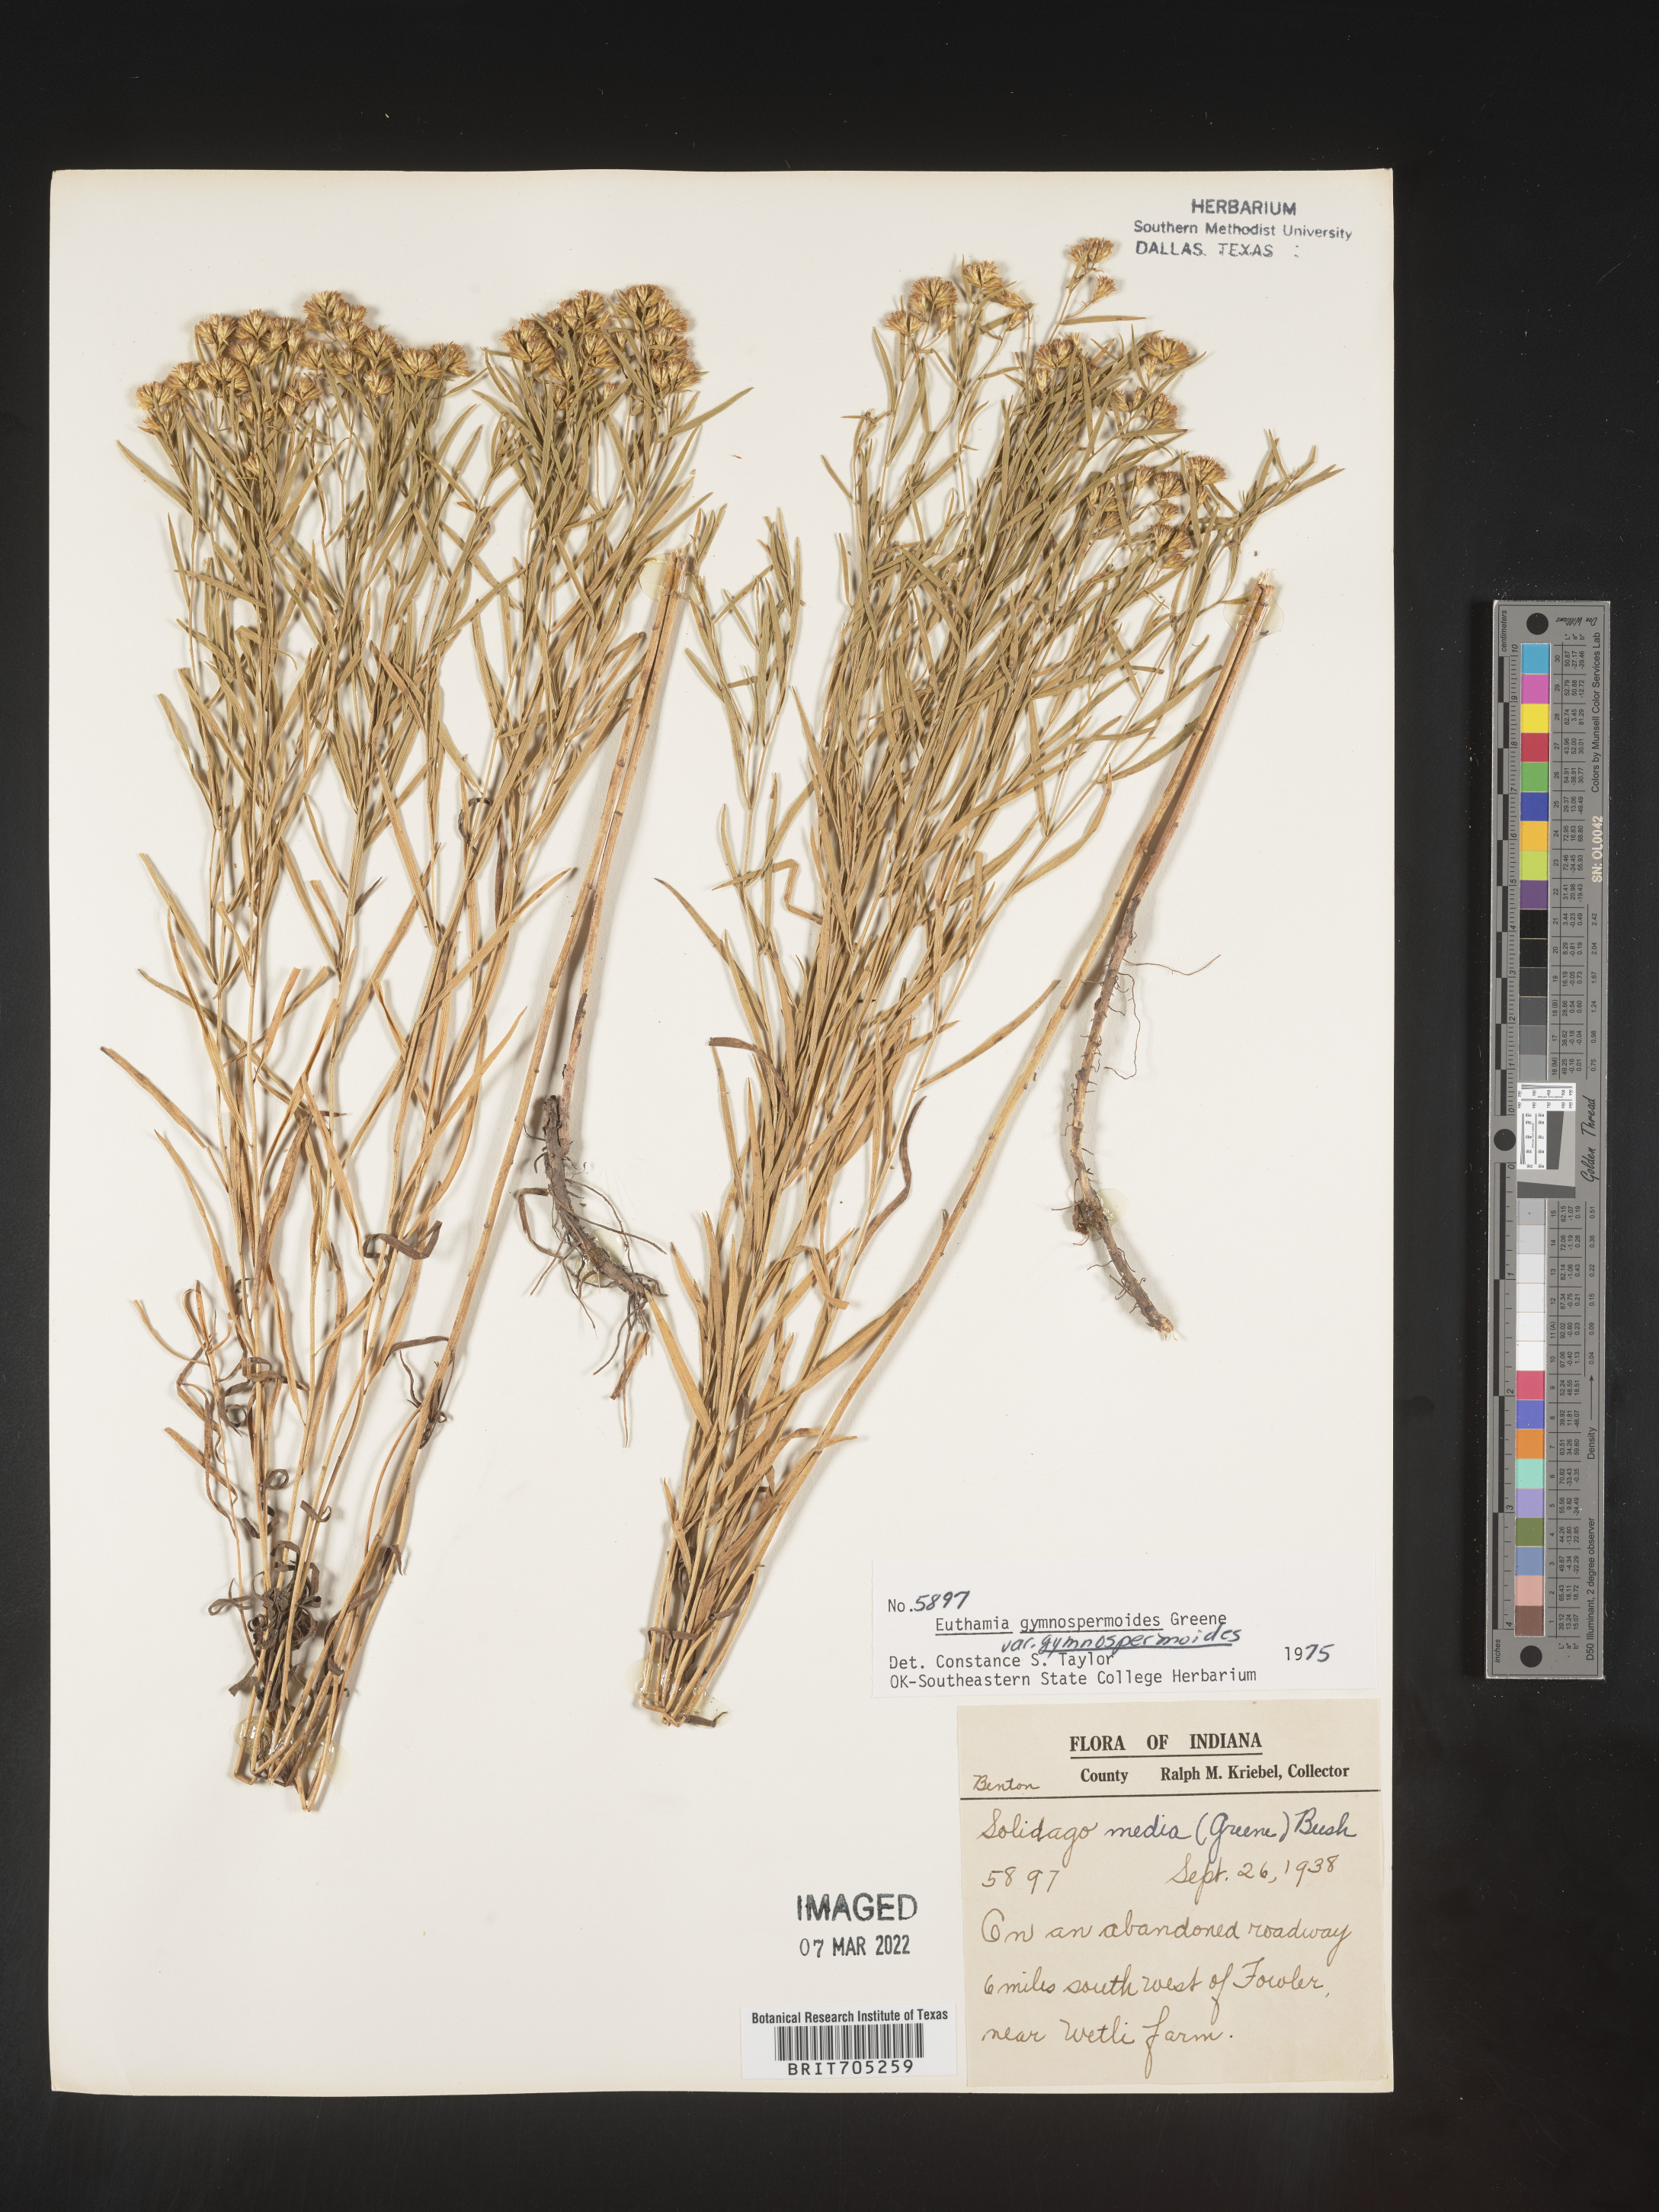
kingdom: Plantae
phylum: Tracheophyta
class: Magnoliopsida
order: Asterales
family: Asteraceae
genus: Euthamia
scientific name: Euthamia gymnospermoides
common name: Great plains goldentop
